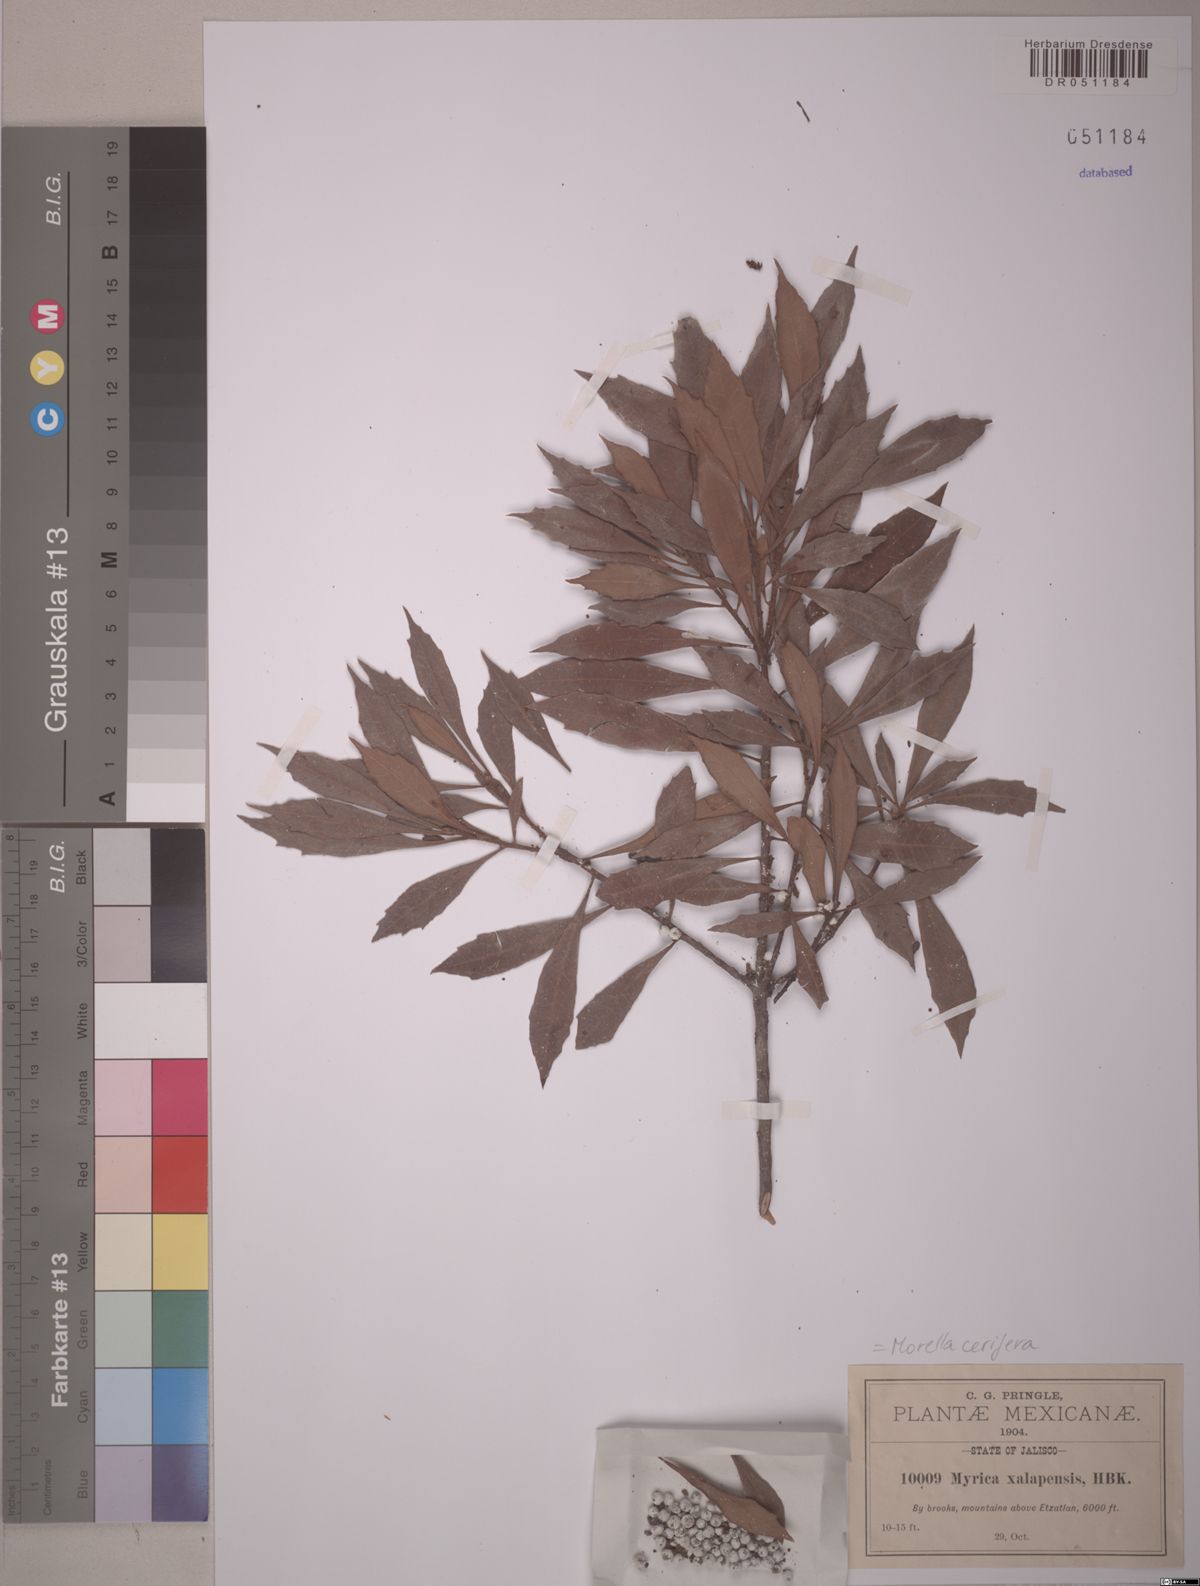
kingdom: Plantae
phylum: Tracheophyta
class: Magnoliopsida
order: Fagales
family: Myricaceae
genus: Morella
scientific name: Morella cerifera
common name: Wax myrtle
